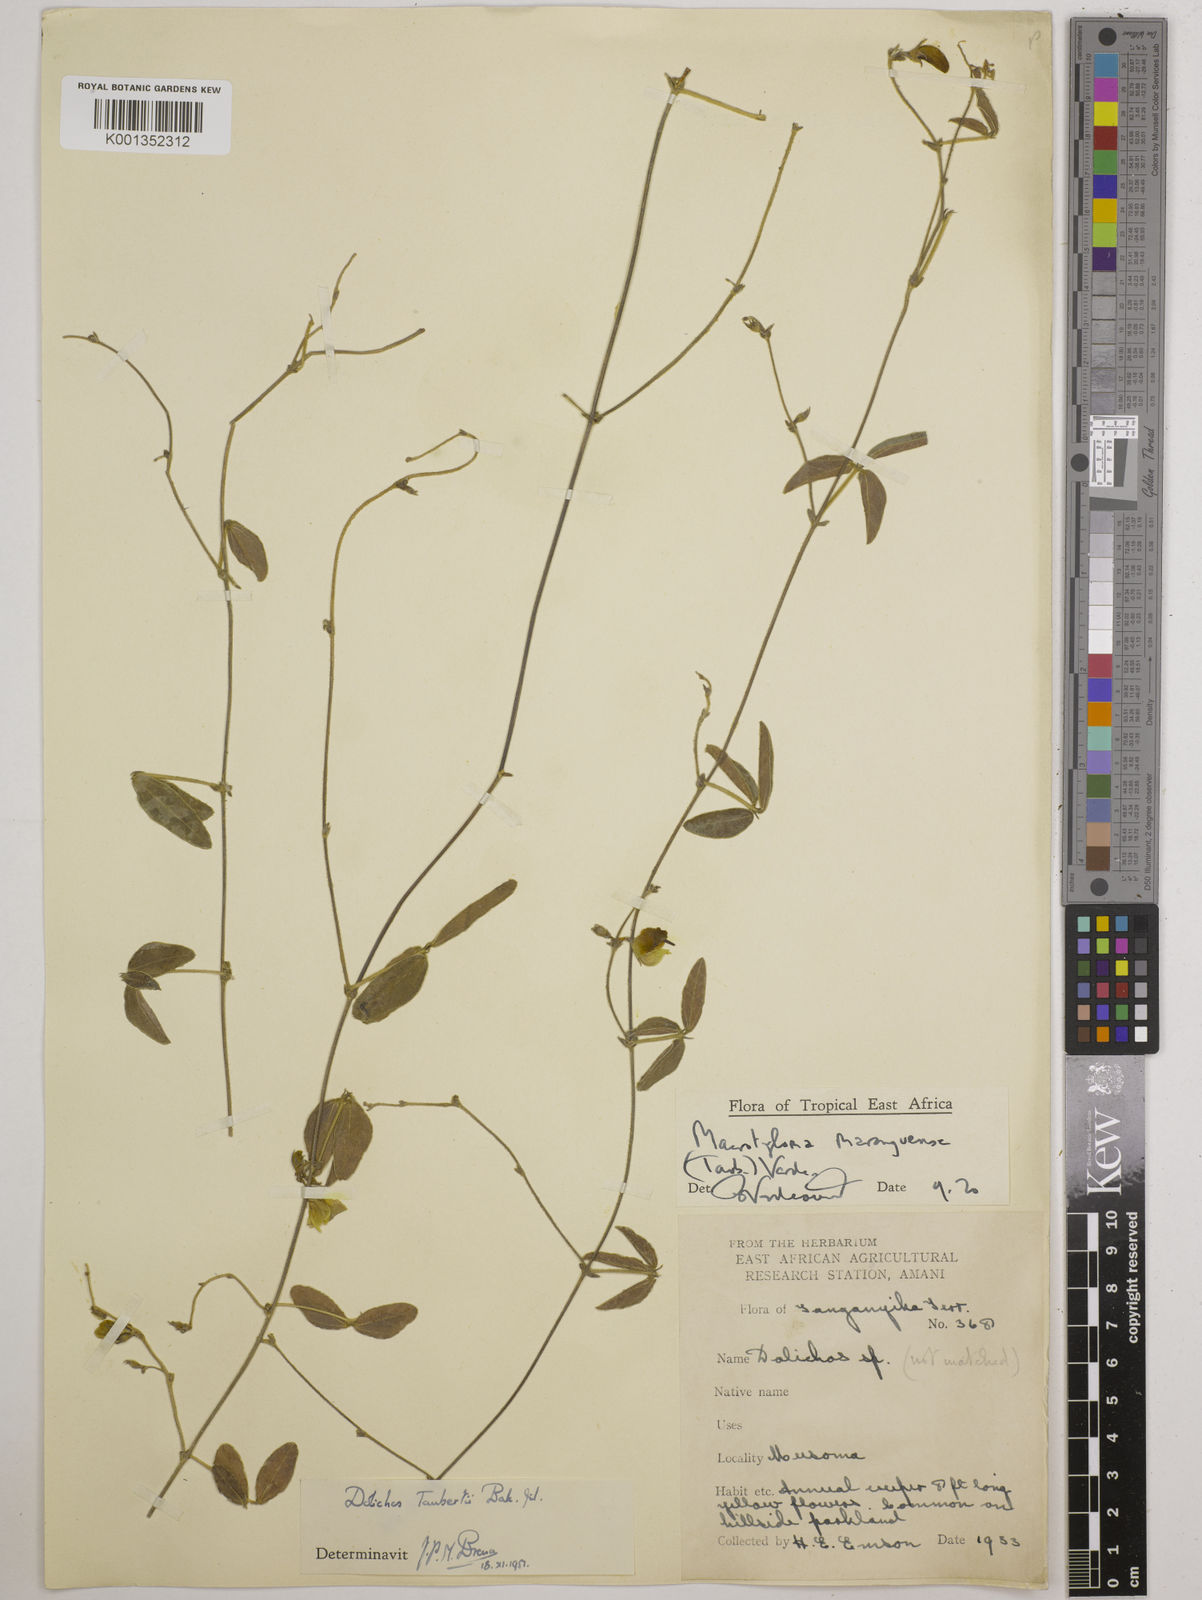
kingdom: Plantae
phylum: Tracheophyta
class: Magnoliopsida
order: Fabales
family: Fabaceae
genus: Macrotyloma
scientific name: Macrotyloma maranguense
